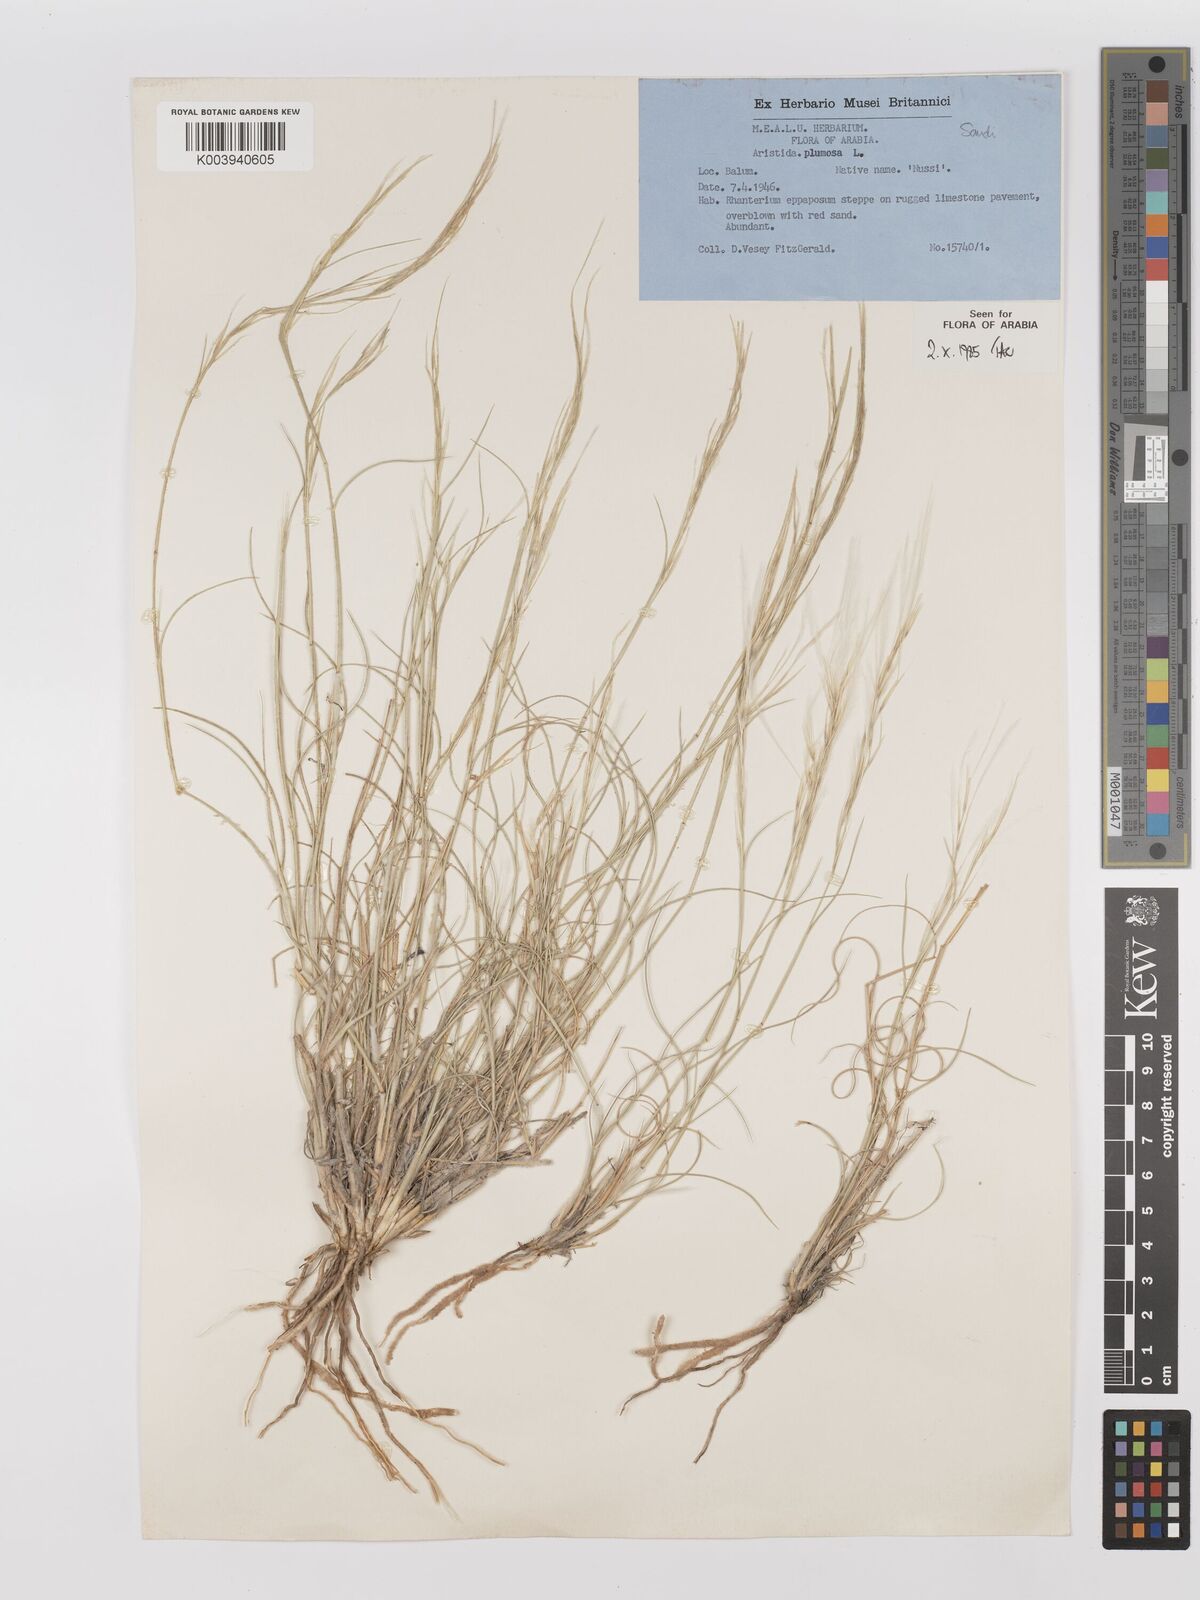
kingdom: Plantae
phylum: Tracheophyta
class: Liliopsida
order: Poales
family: Poaceae
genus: Stipagrostis
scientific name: Stipagrostis plumosa
